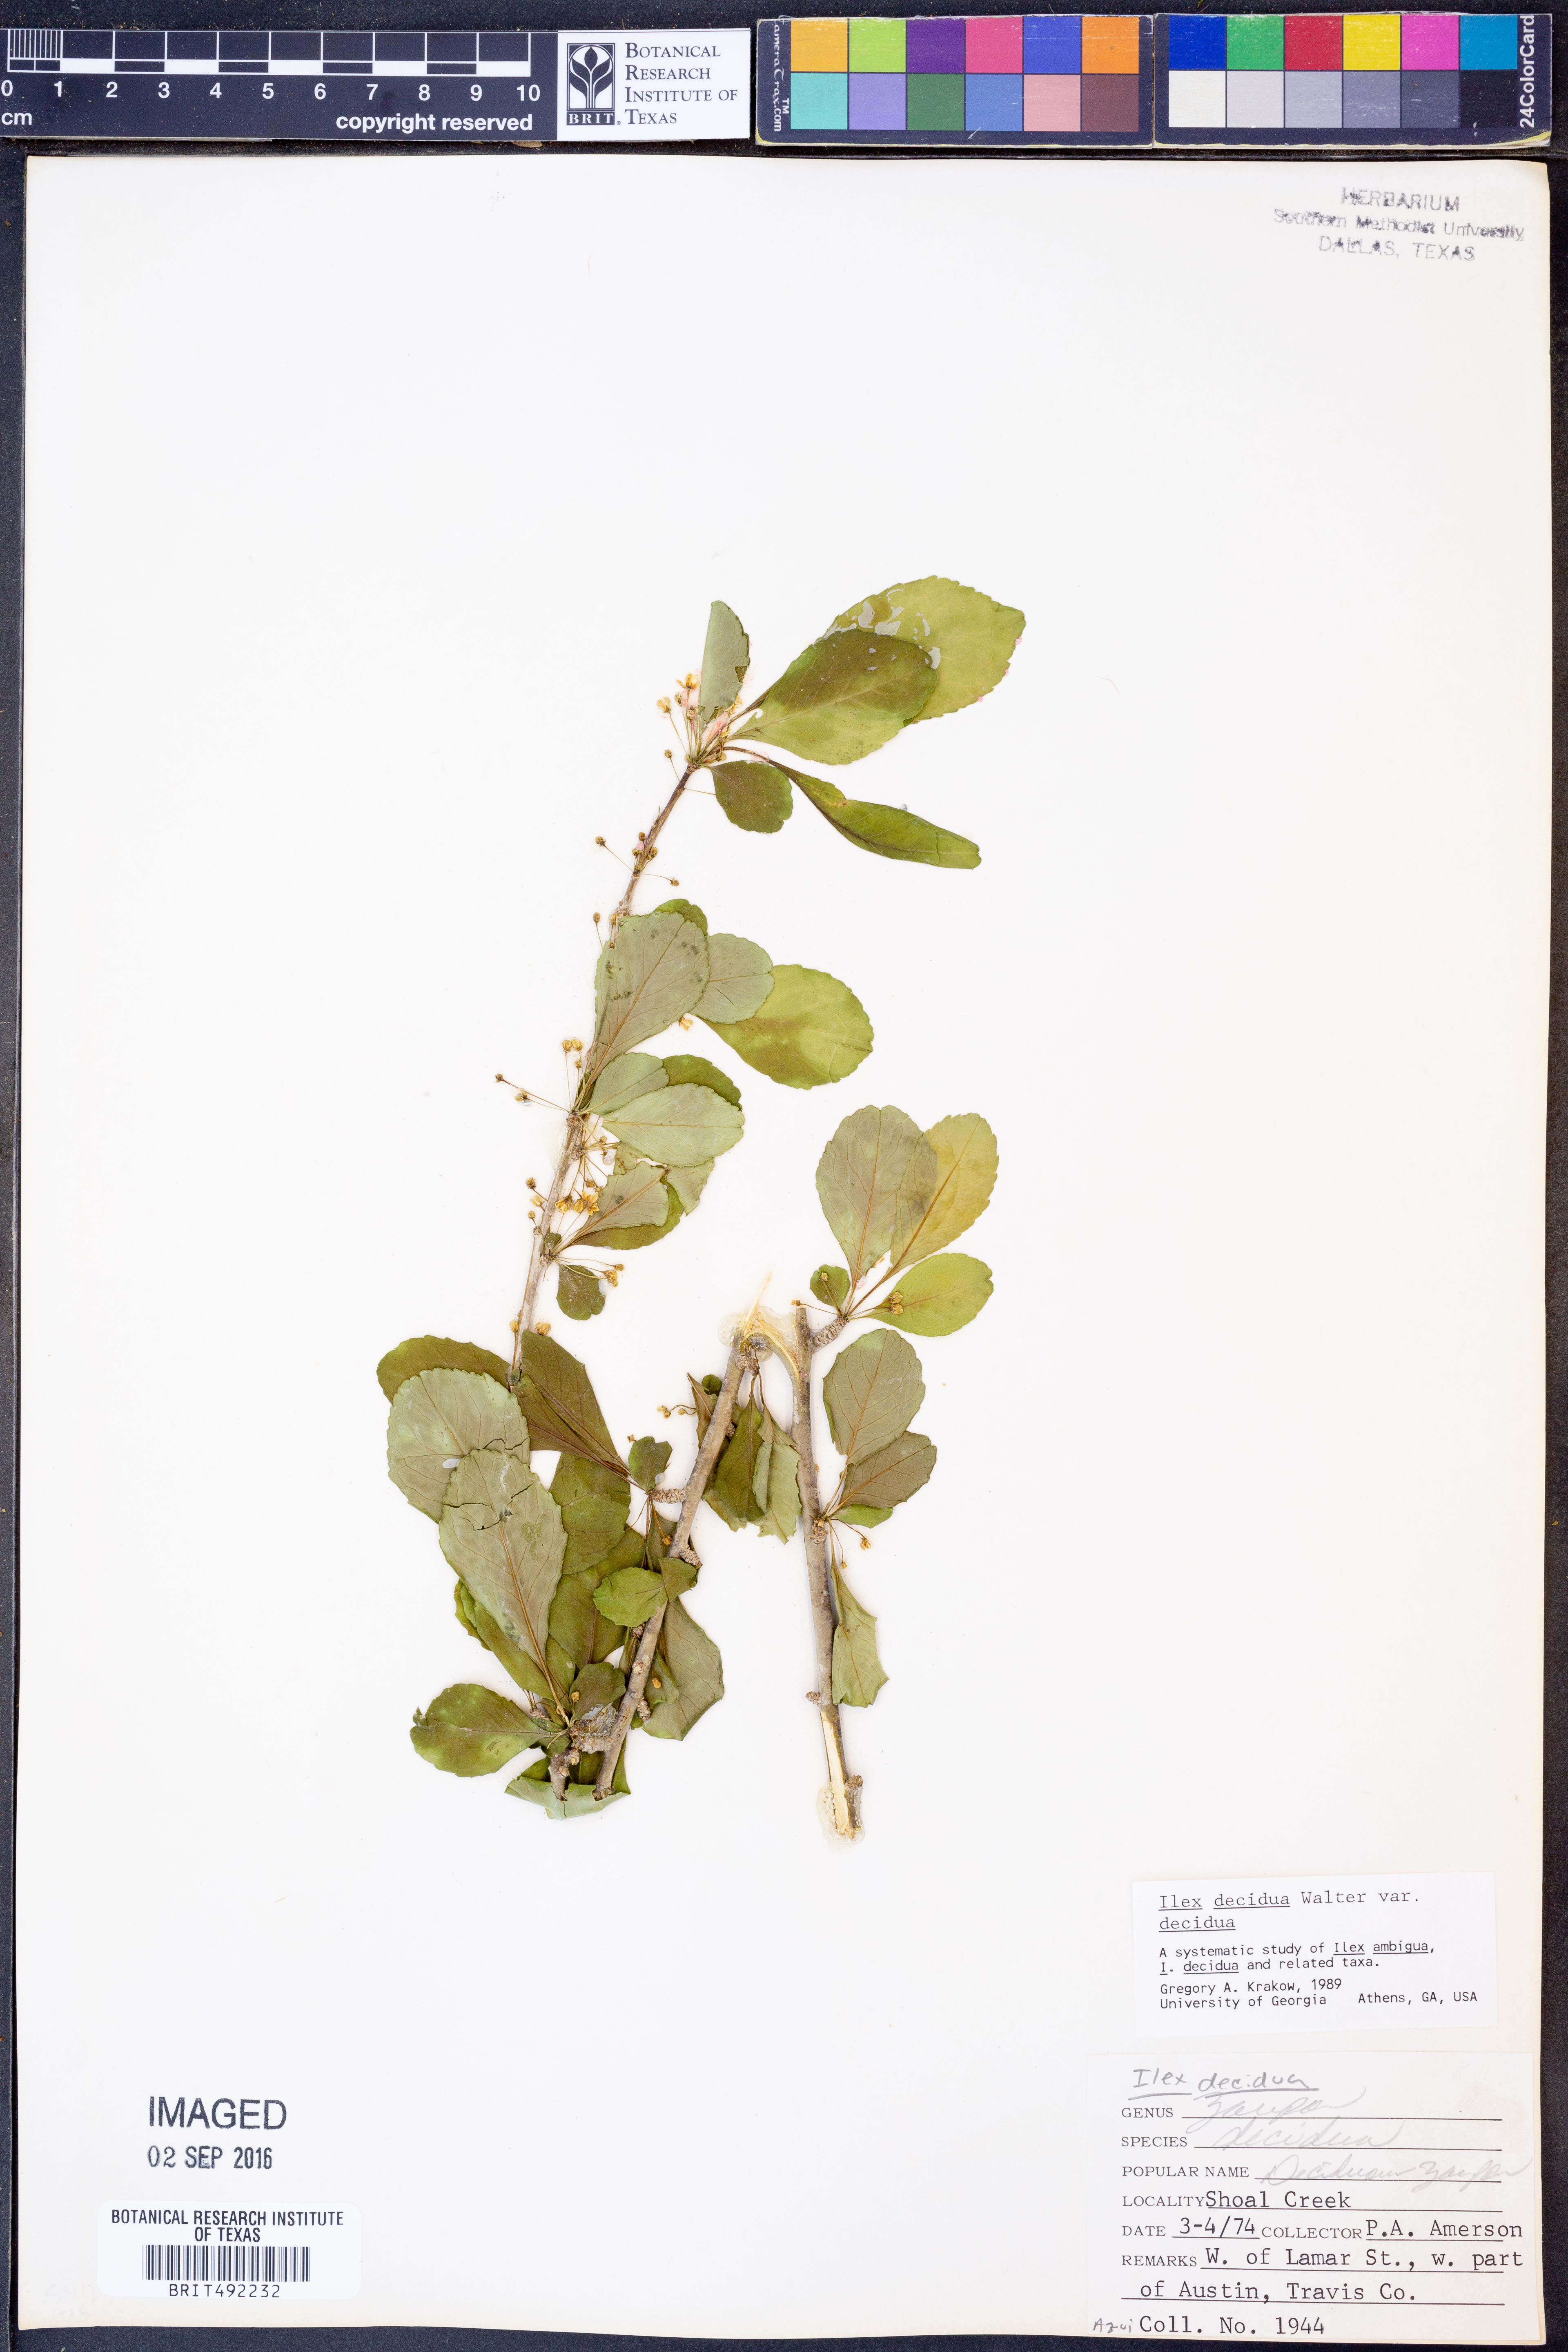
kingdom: Plantae
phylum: Tracheophyta
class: Magnoliopsida
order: Aquifoliales
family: Aquifoliaceae
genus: Ilex
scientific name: Ilex decidua
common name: Possum-haw
